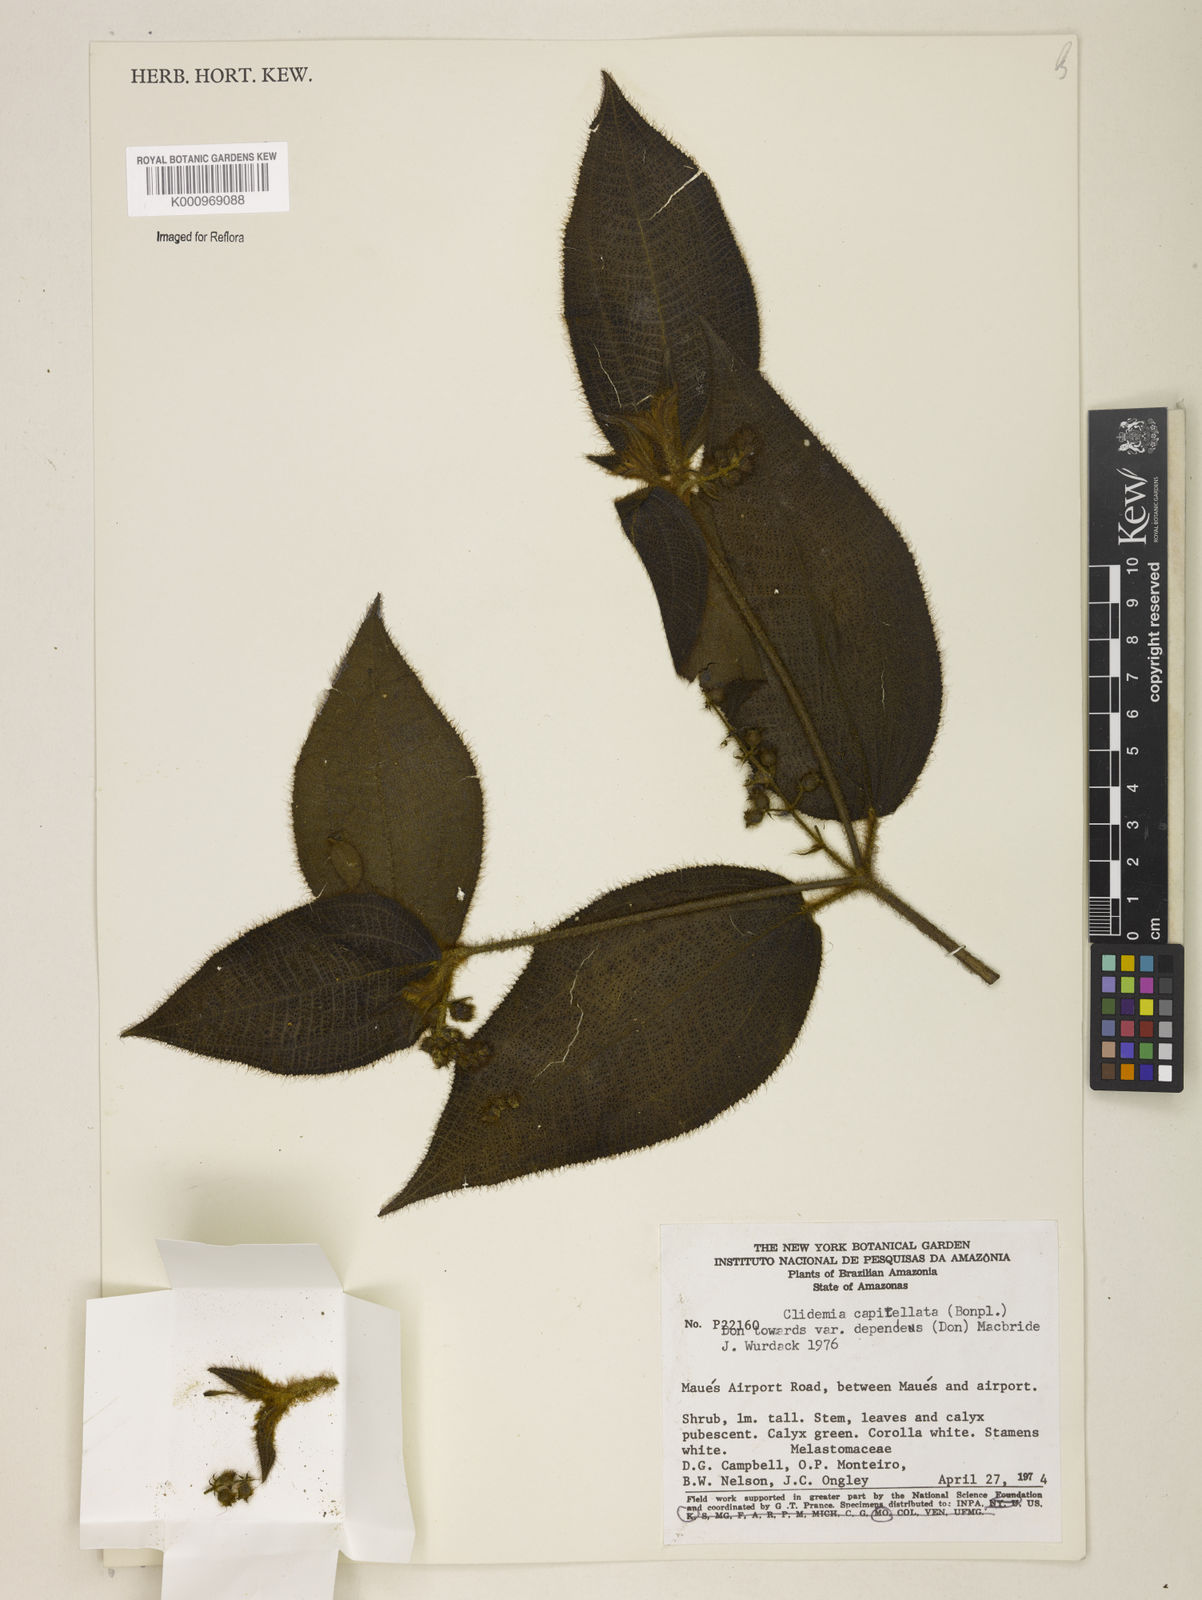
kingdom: Plantae
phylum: Tracheophyta
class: Magnoliopsida
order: Myrtales
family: Melastomataceae
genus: Miconia
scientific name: Miconia dependens
